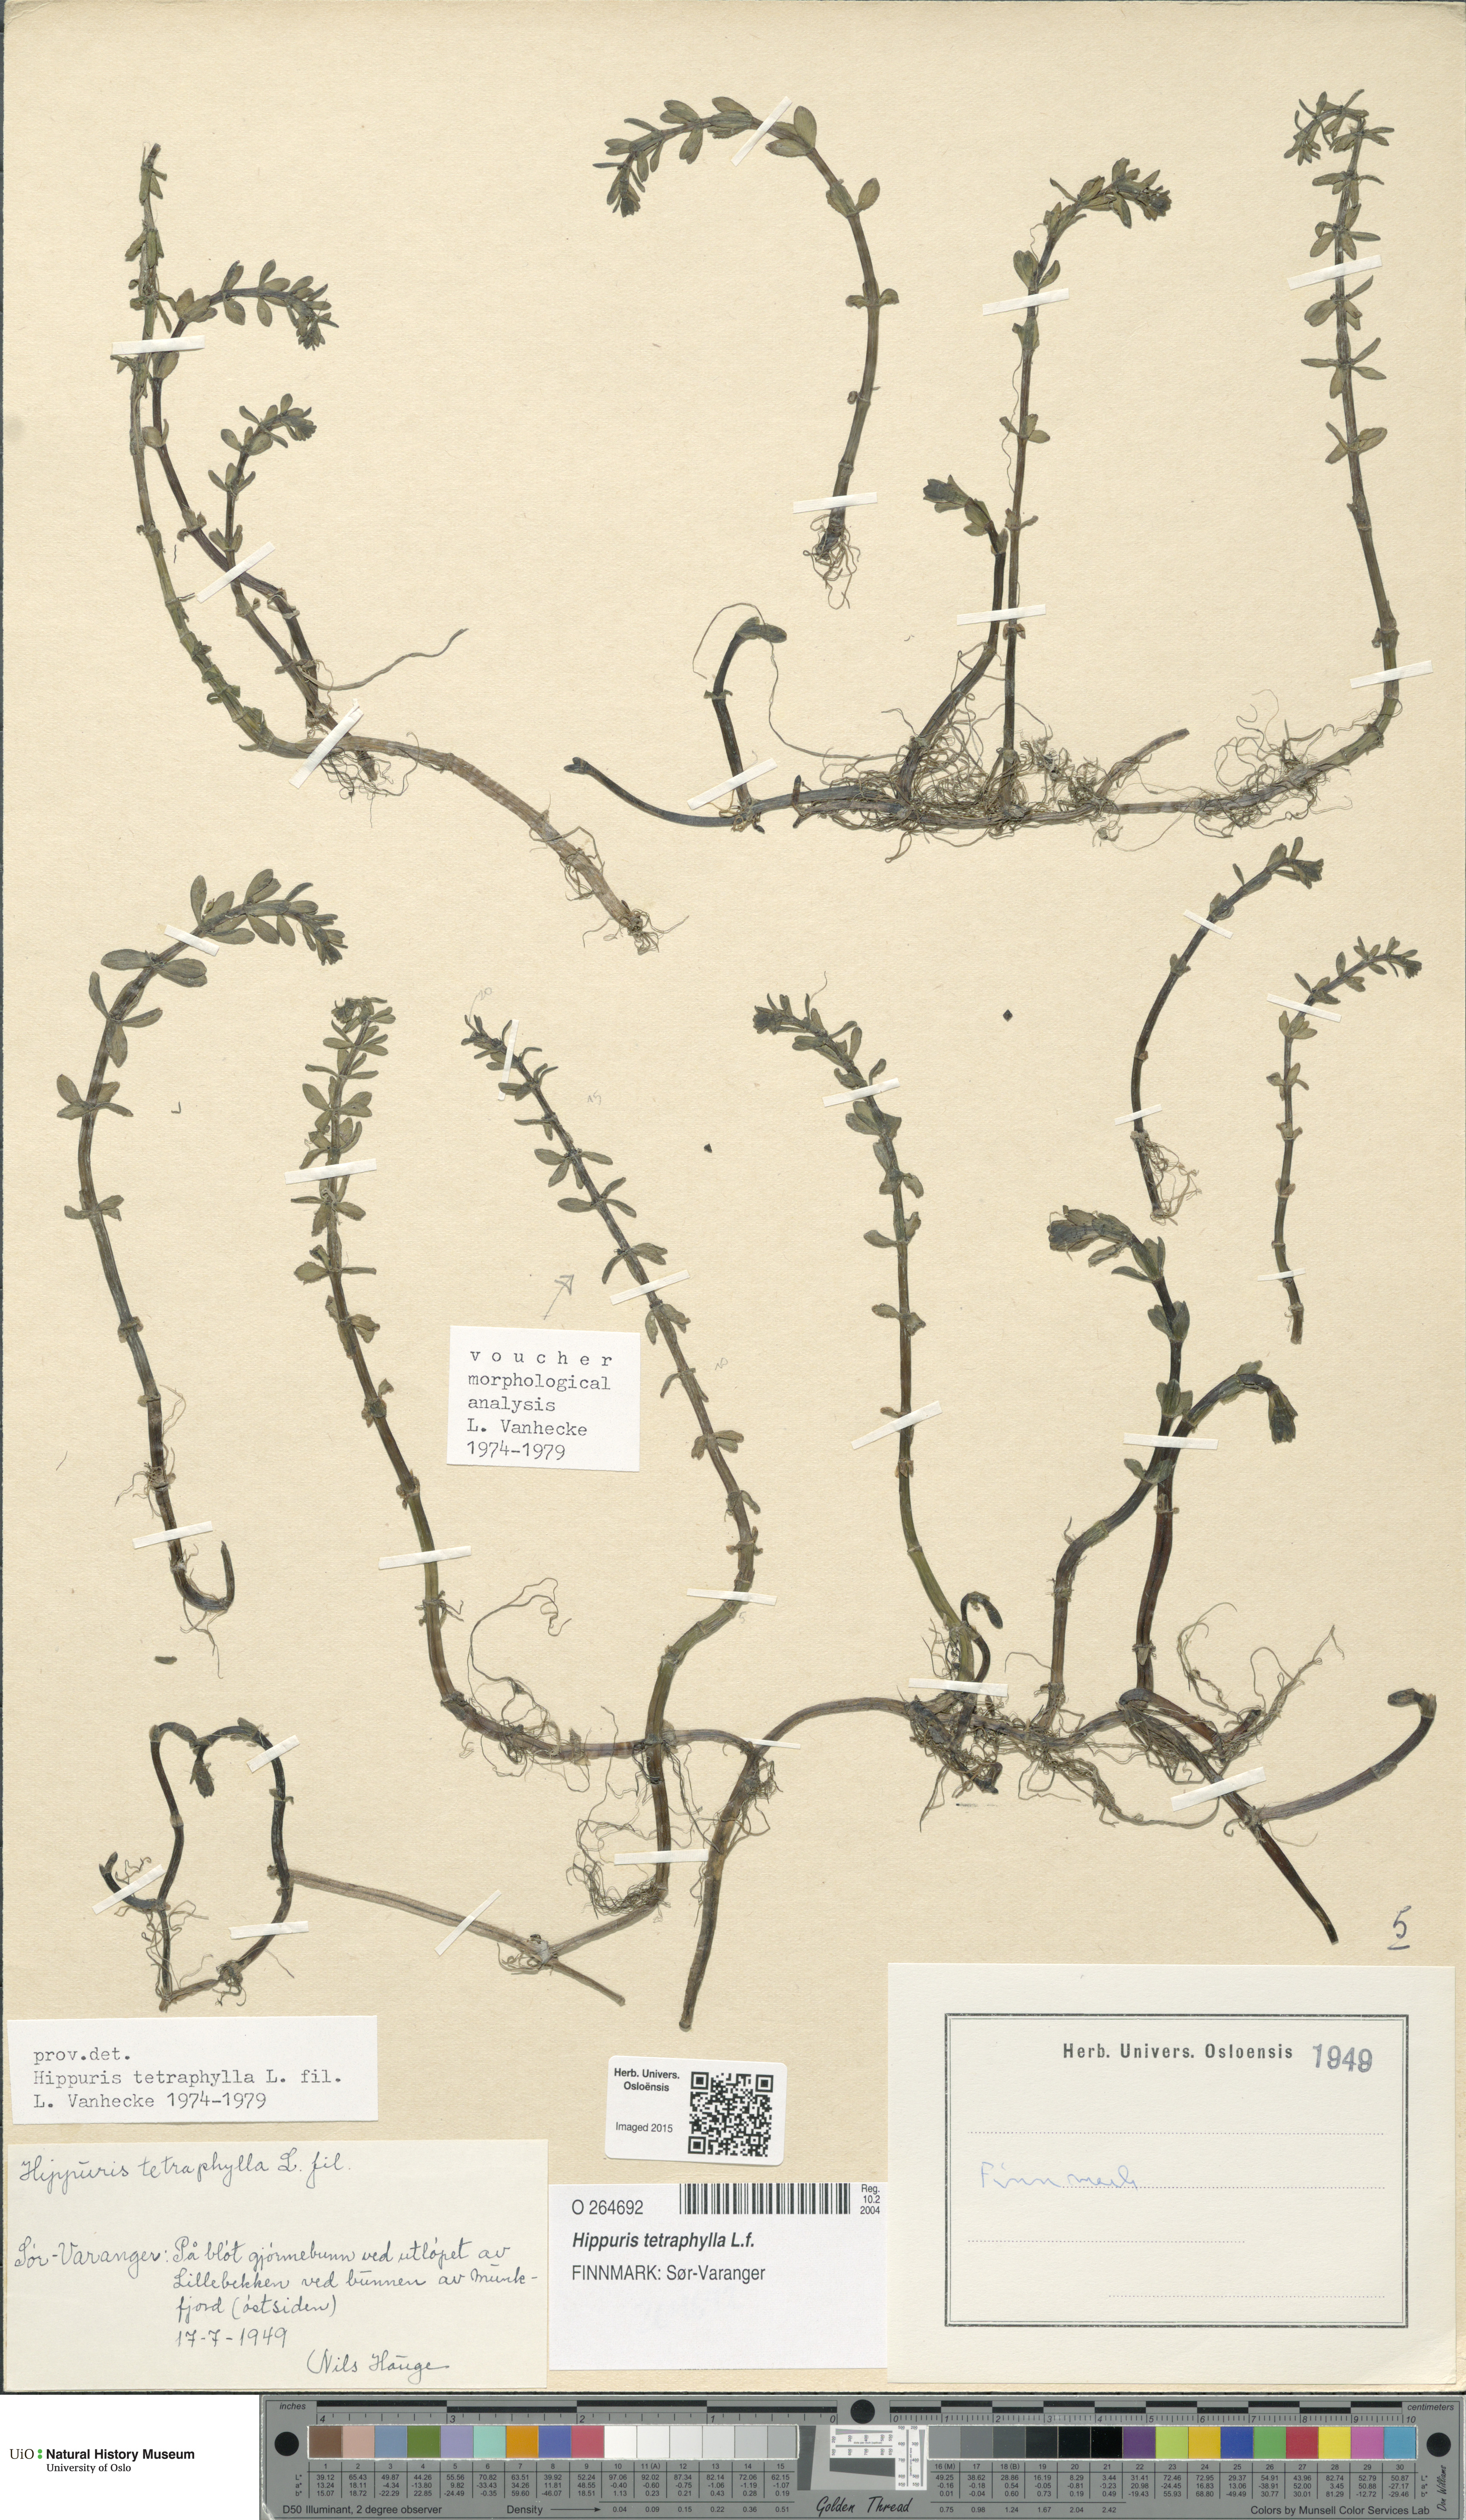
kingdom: Plantae
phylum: Tracheophyta
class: Magnoliopsida
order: Lamiales
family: Plantaginaceae
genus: Hippuris
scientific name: Hippuris tetraphylla
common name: Four-leaved mare's-tail
